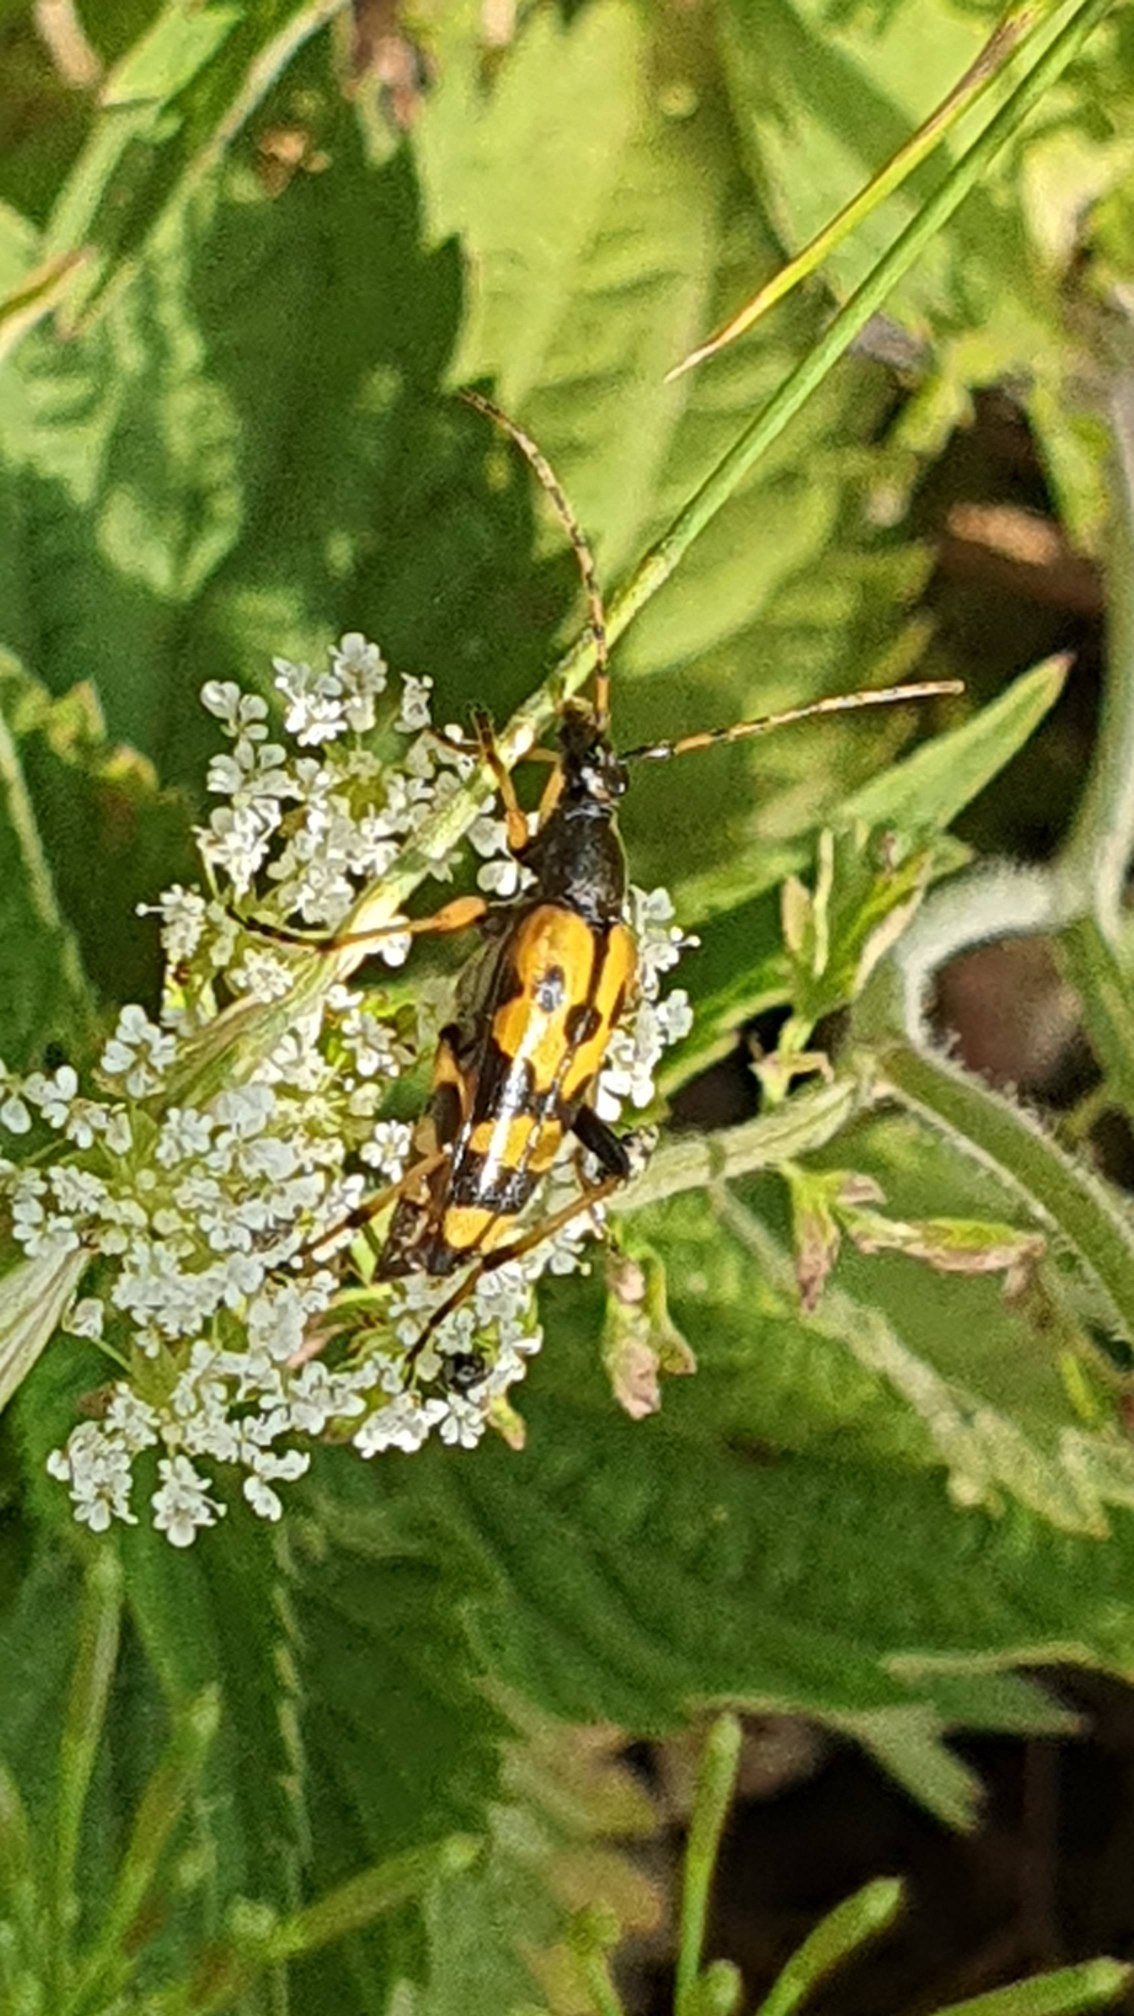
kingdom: Animalia
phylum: Arthropoda
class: Insecta
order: Coleoptera
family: Cerambycidae
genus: Rutpela
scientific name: Rutpela maculata
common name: Sydlig blomsterbuk
